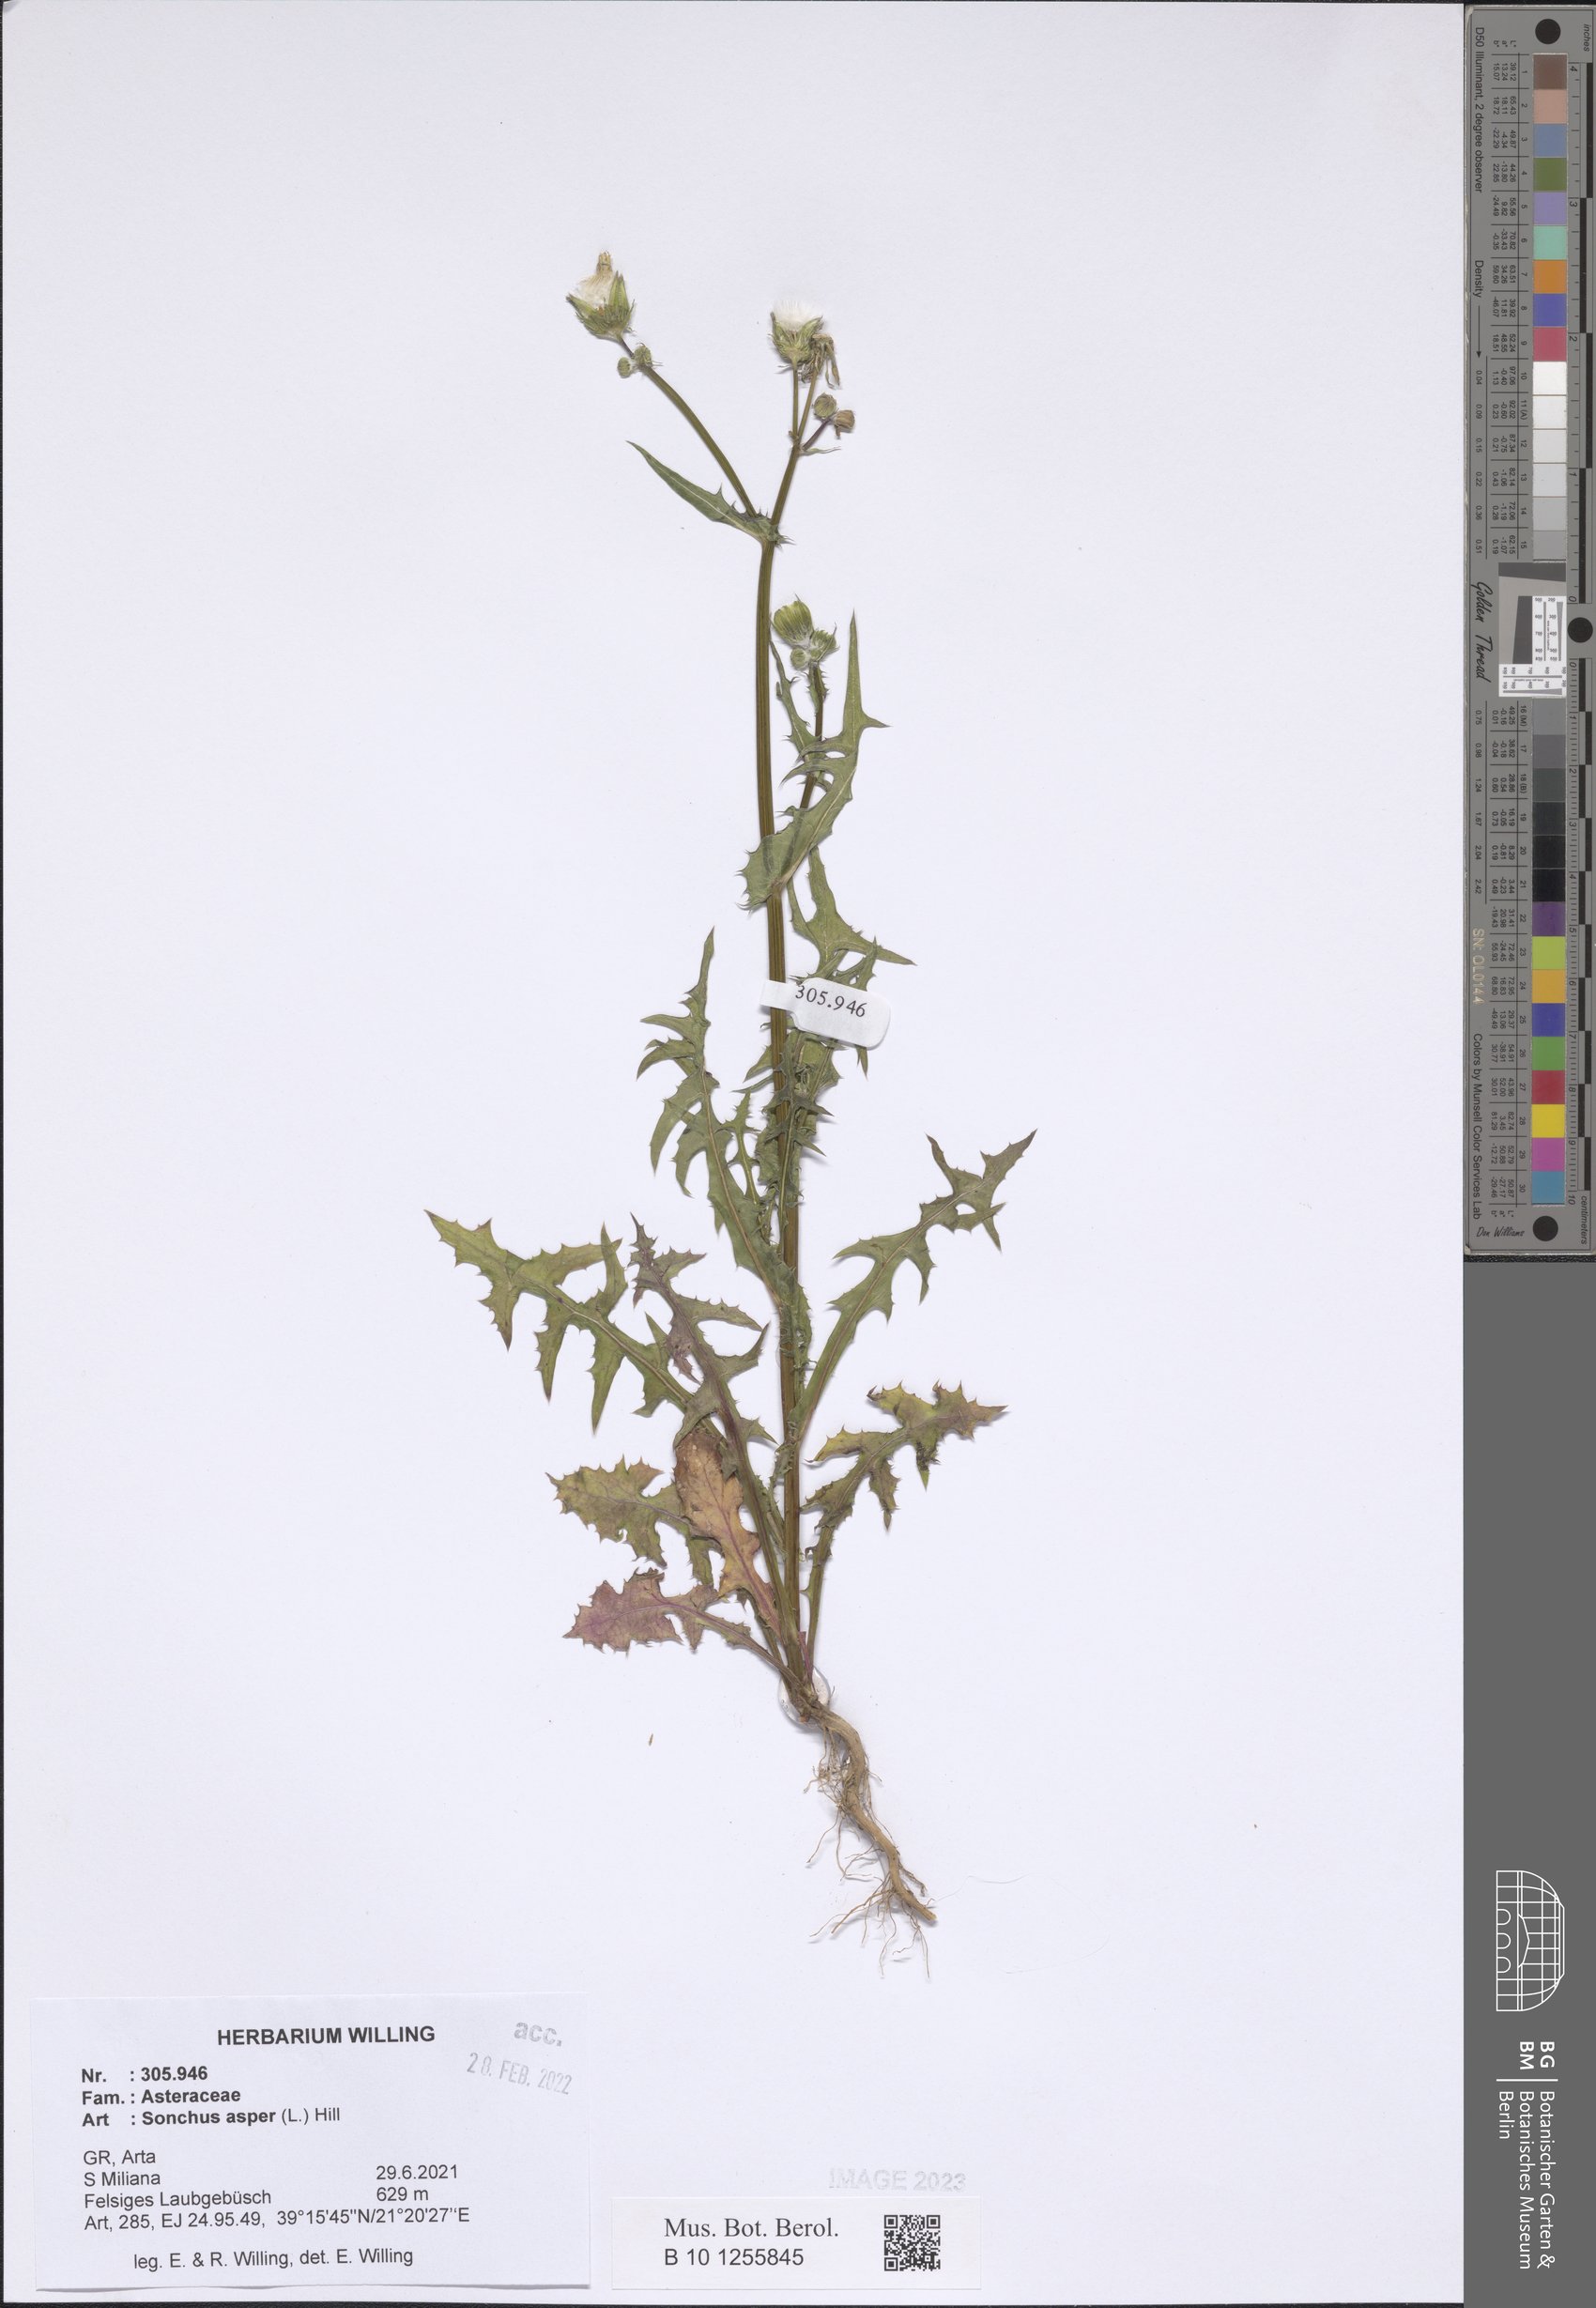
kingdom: Plantae
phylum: Tracheophyta
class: Magnoliopsida
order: Asterales
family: Asteraceae
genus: Sonchus
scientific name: Sonchus asper
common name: Prickly sow-thistle
